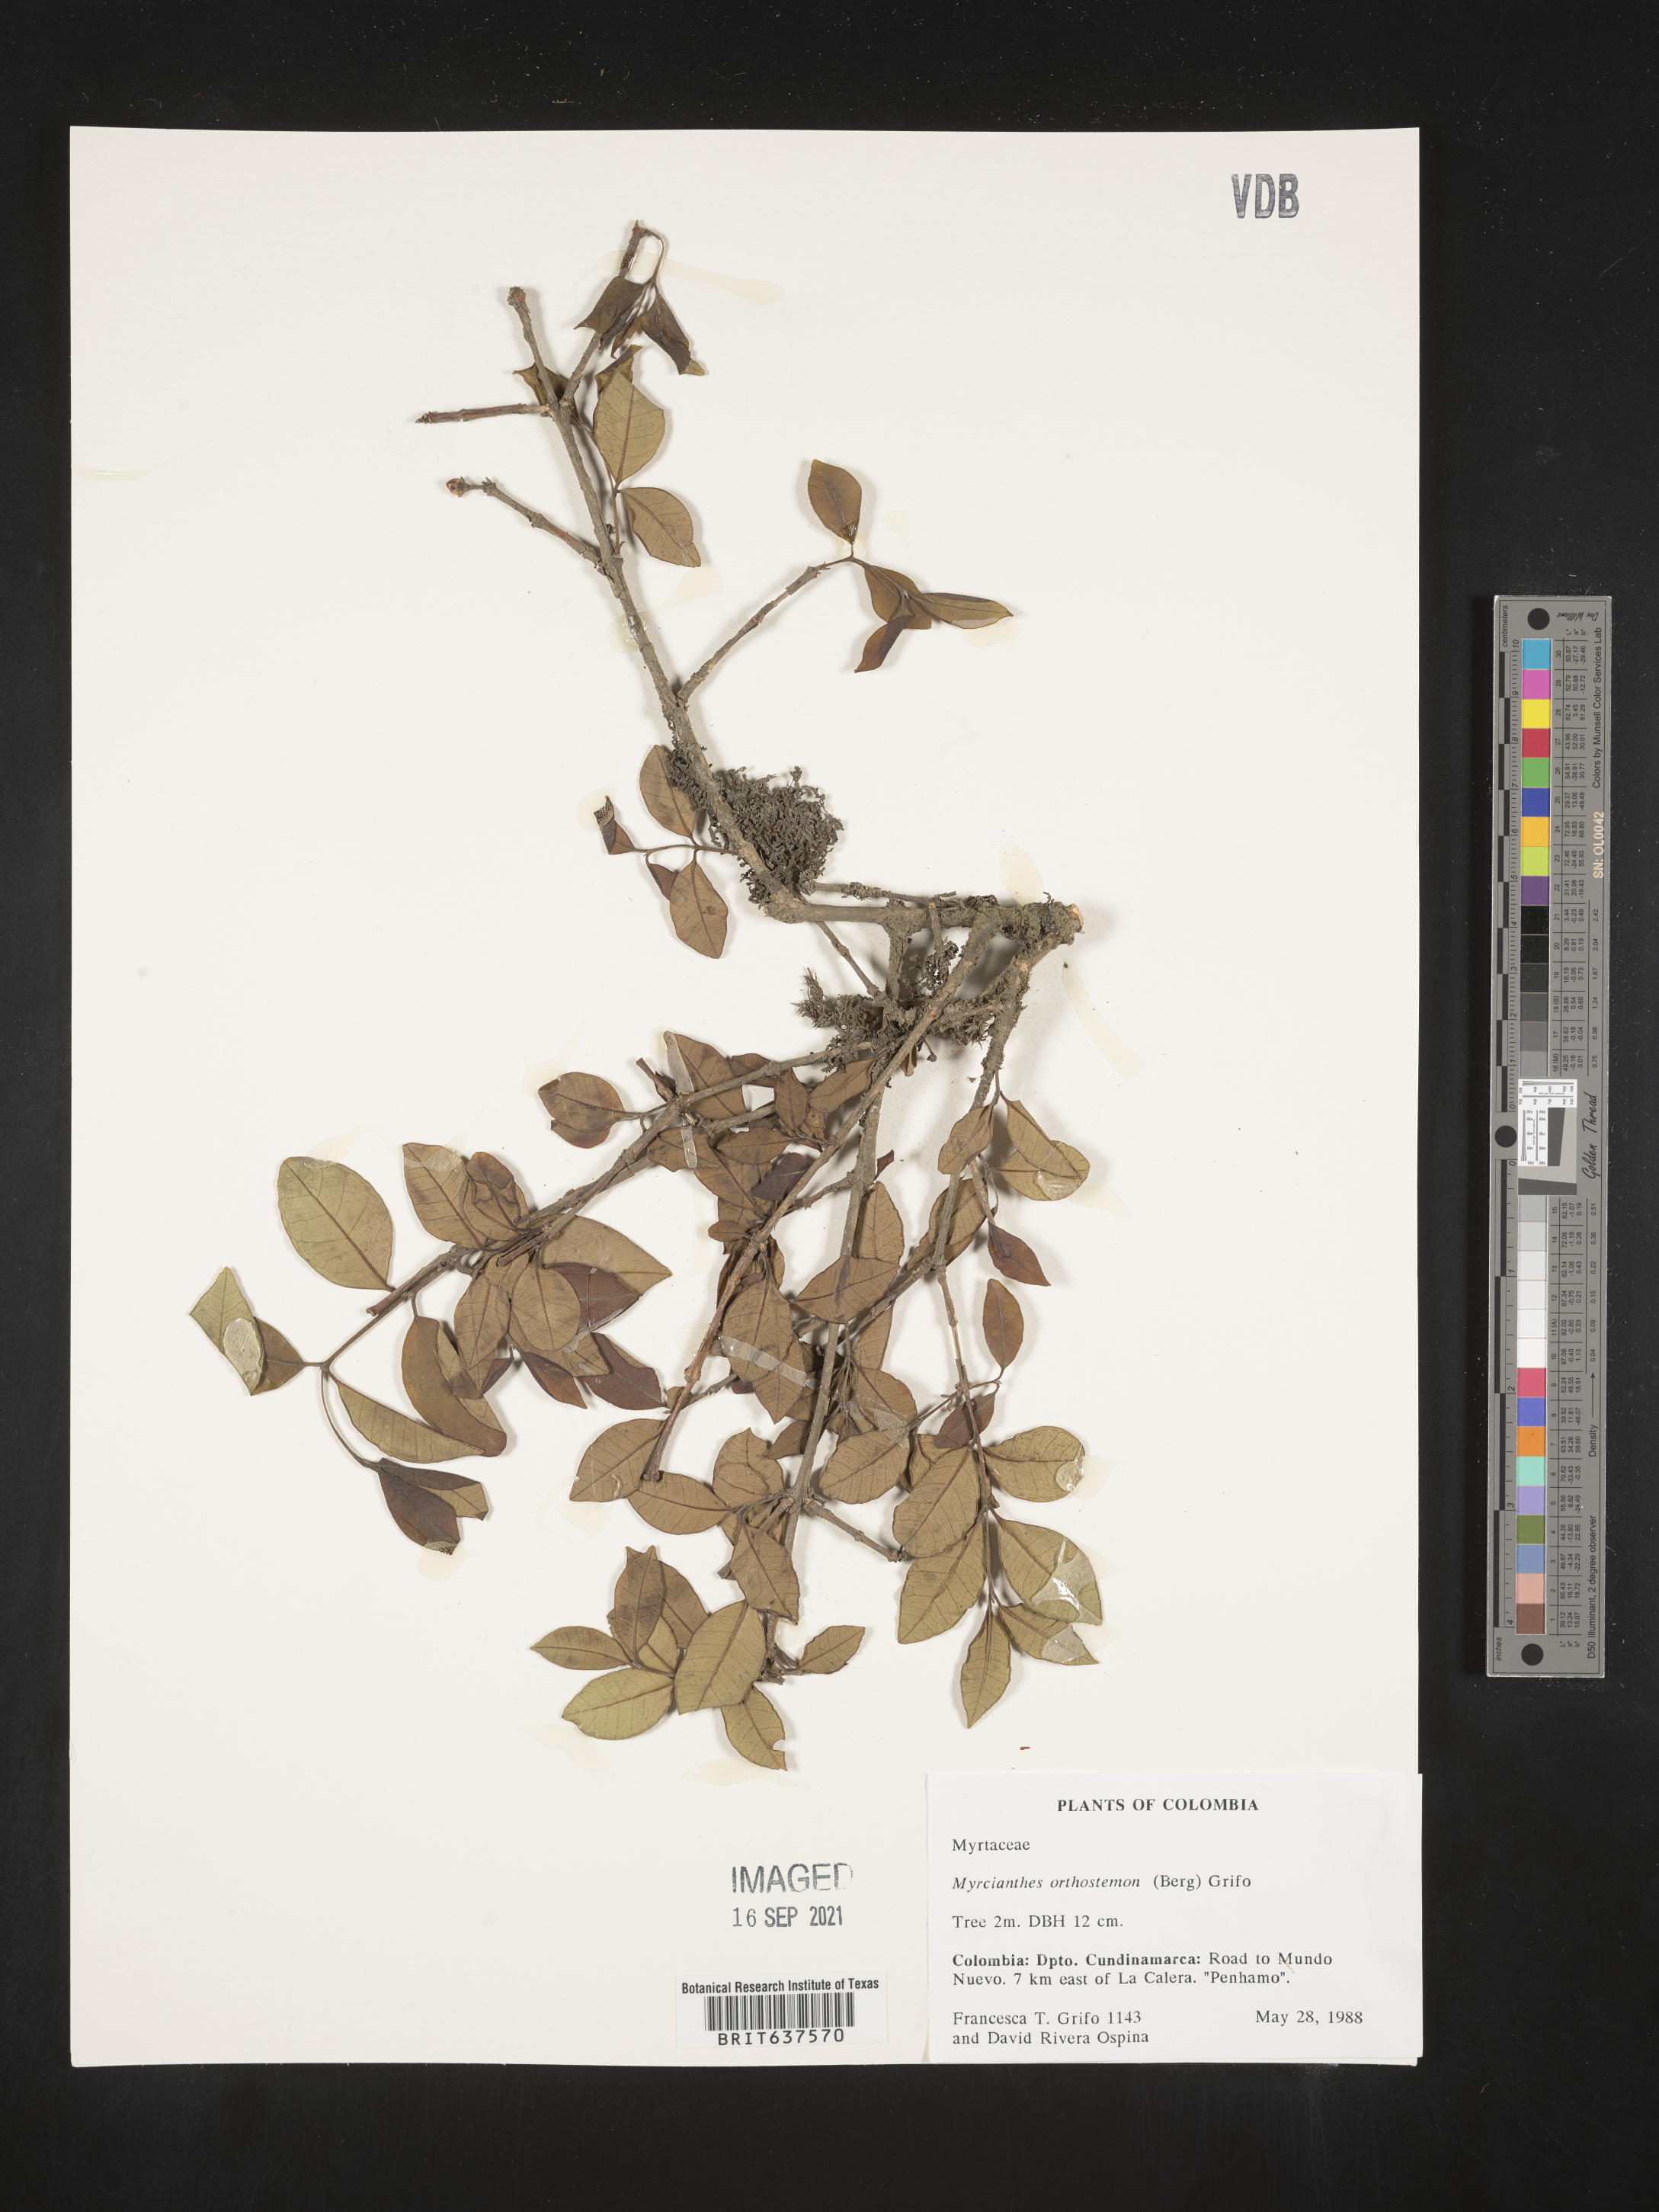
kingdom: Plantae
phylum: Tracheophyta
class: Magnoliopsida
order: Myrtales
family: Myrtaceae
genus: Myrcianthes
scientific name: Myrcianthes
